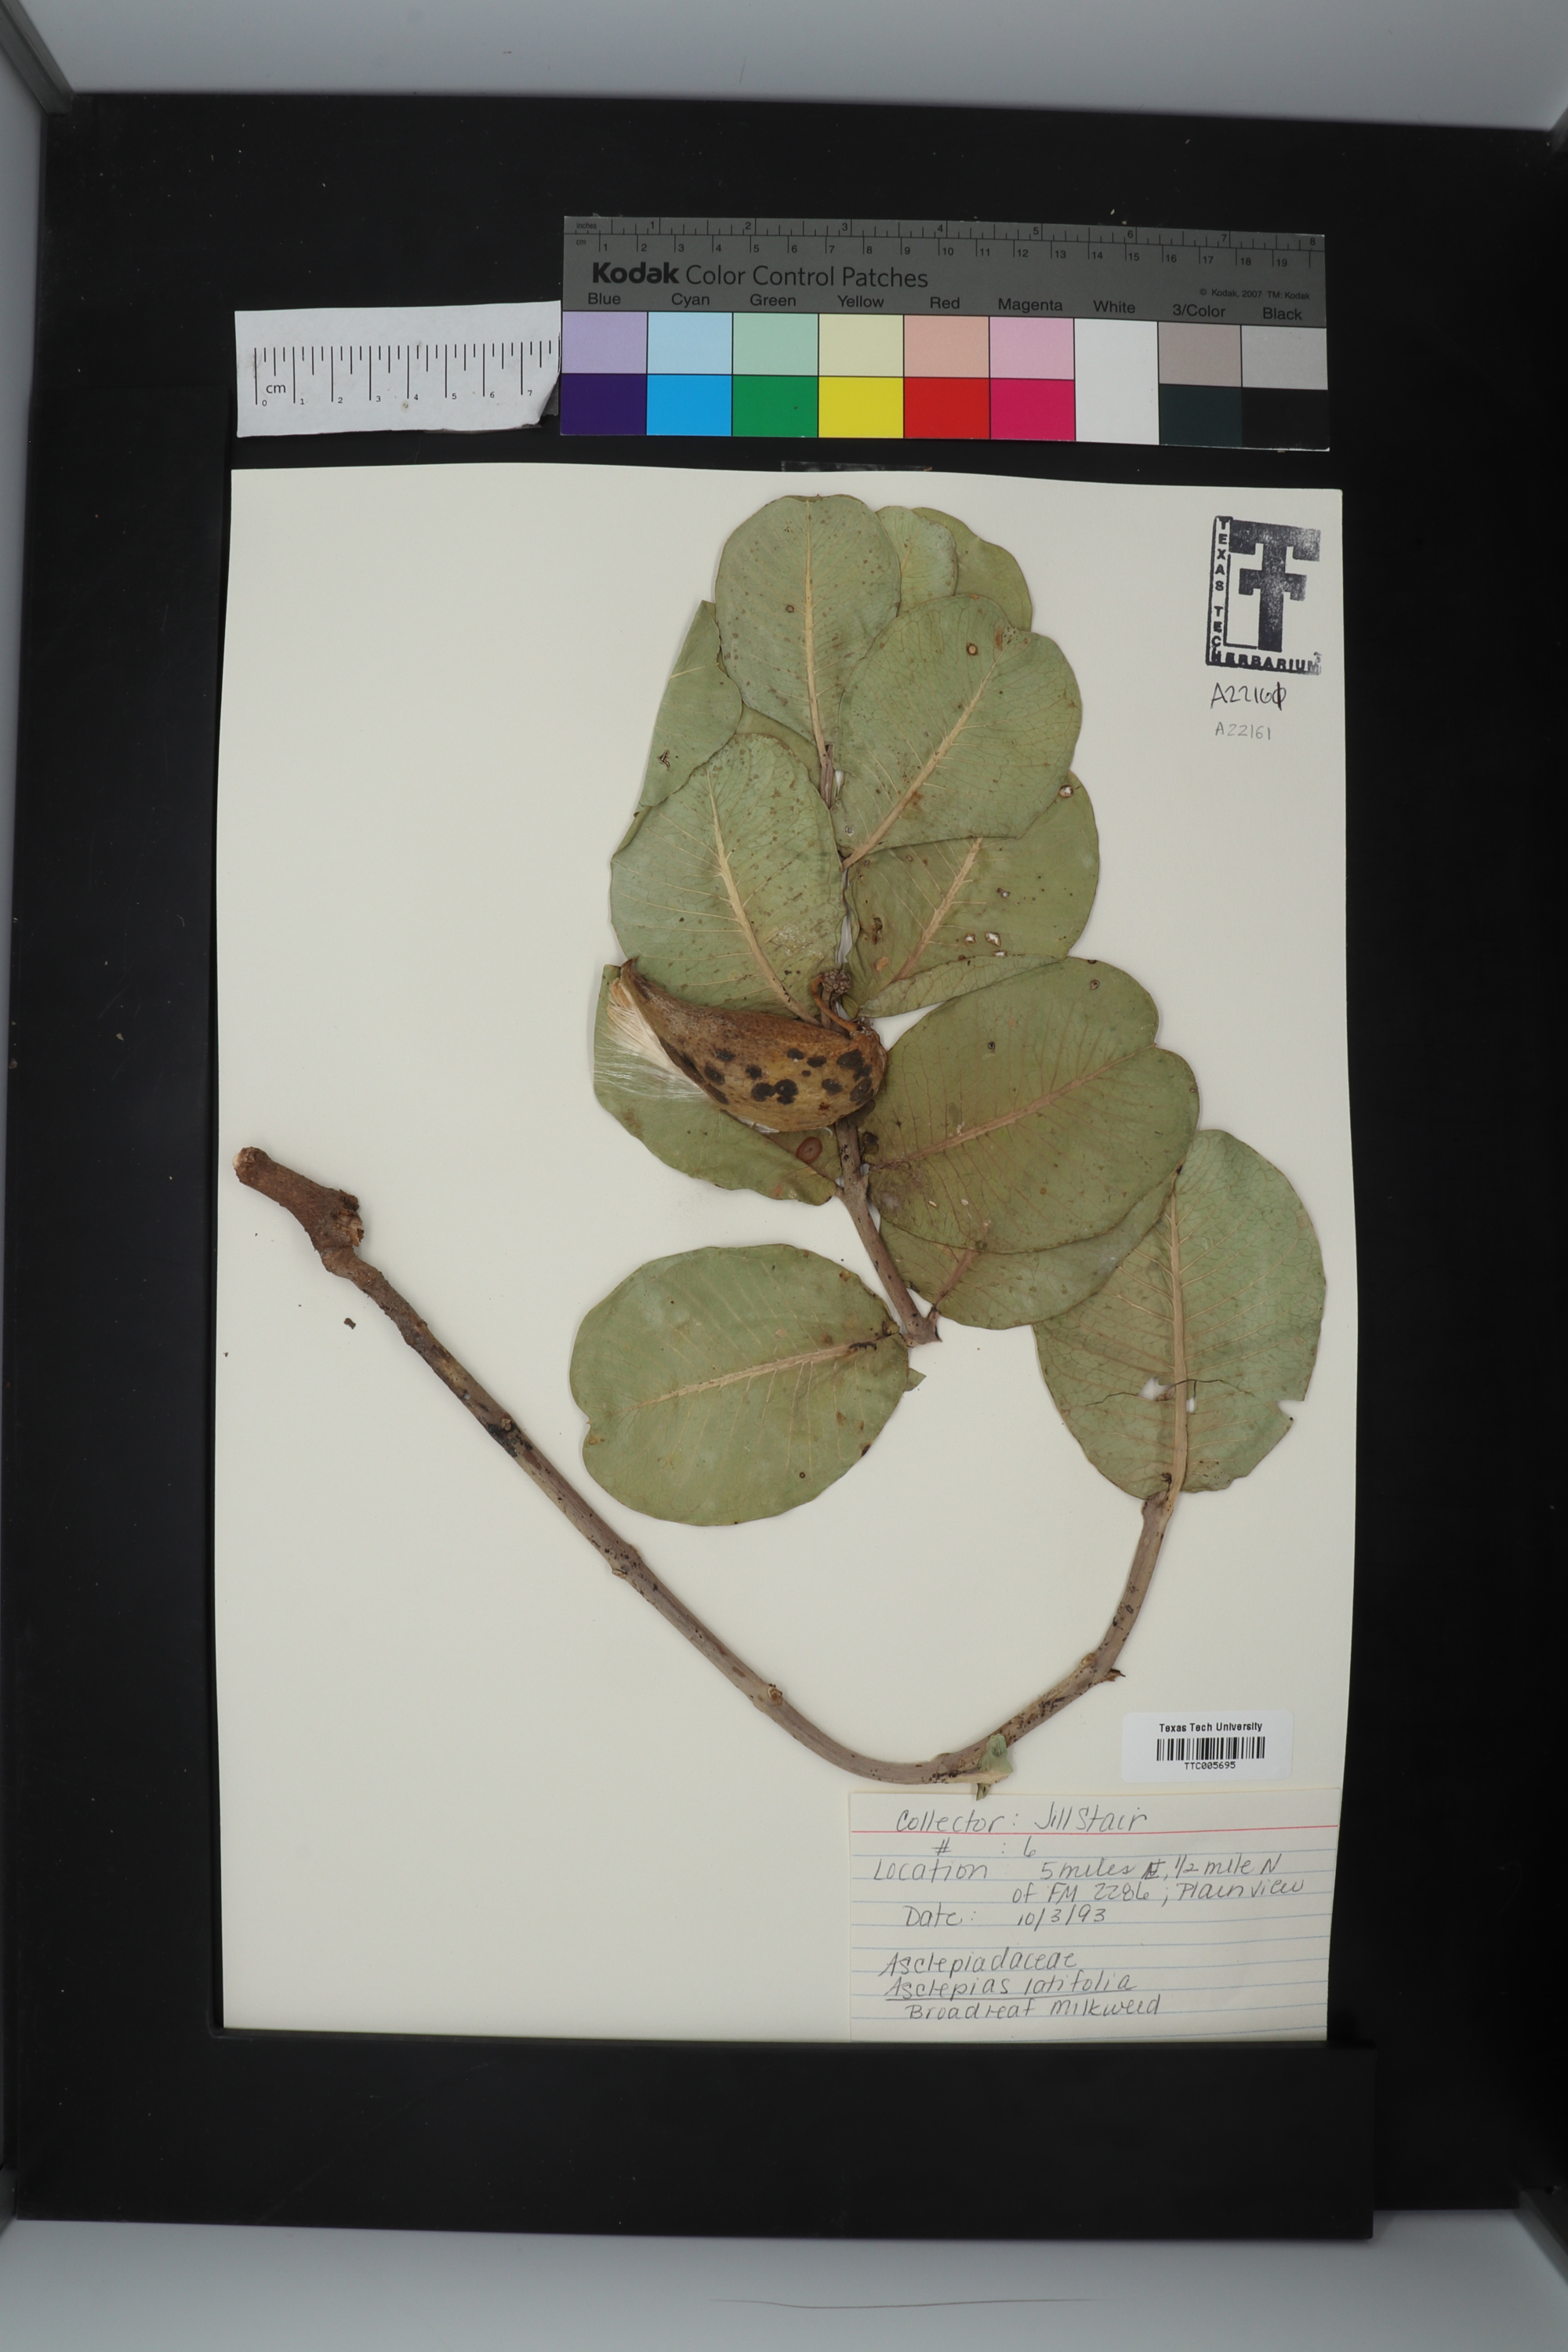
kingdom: Plantae
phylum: Tracheophyta
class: Magnoliopsida
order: Gentianales
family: Apocynaceae
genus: Asclepias
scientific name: Asclepias latifolia
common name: Broadleaf milkweed
